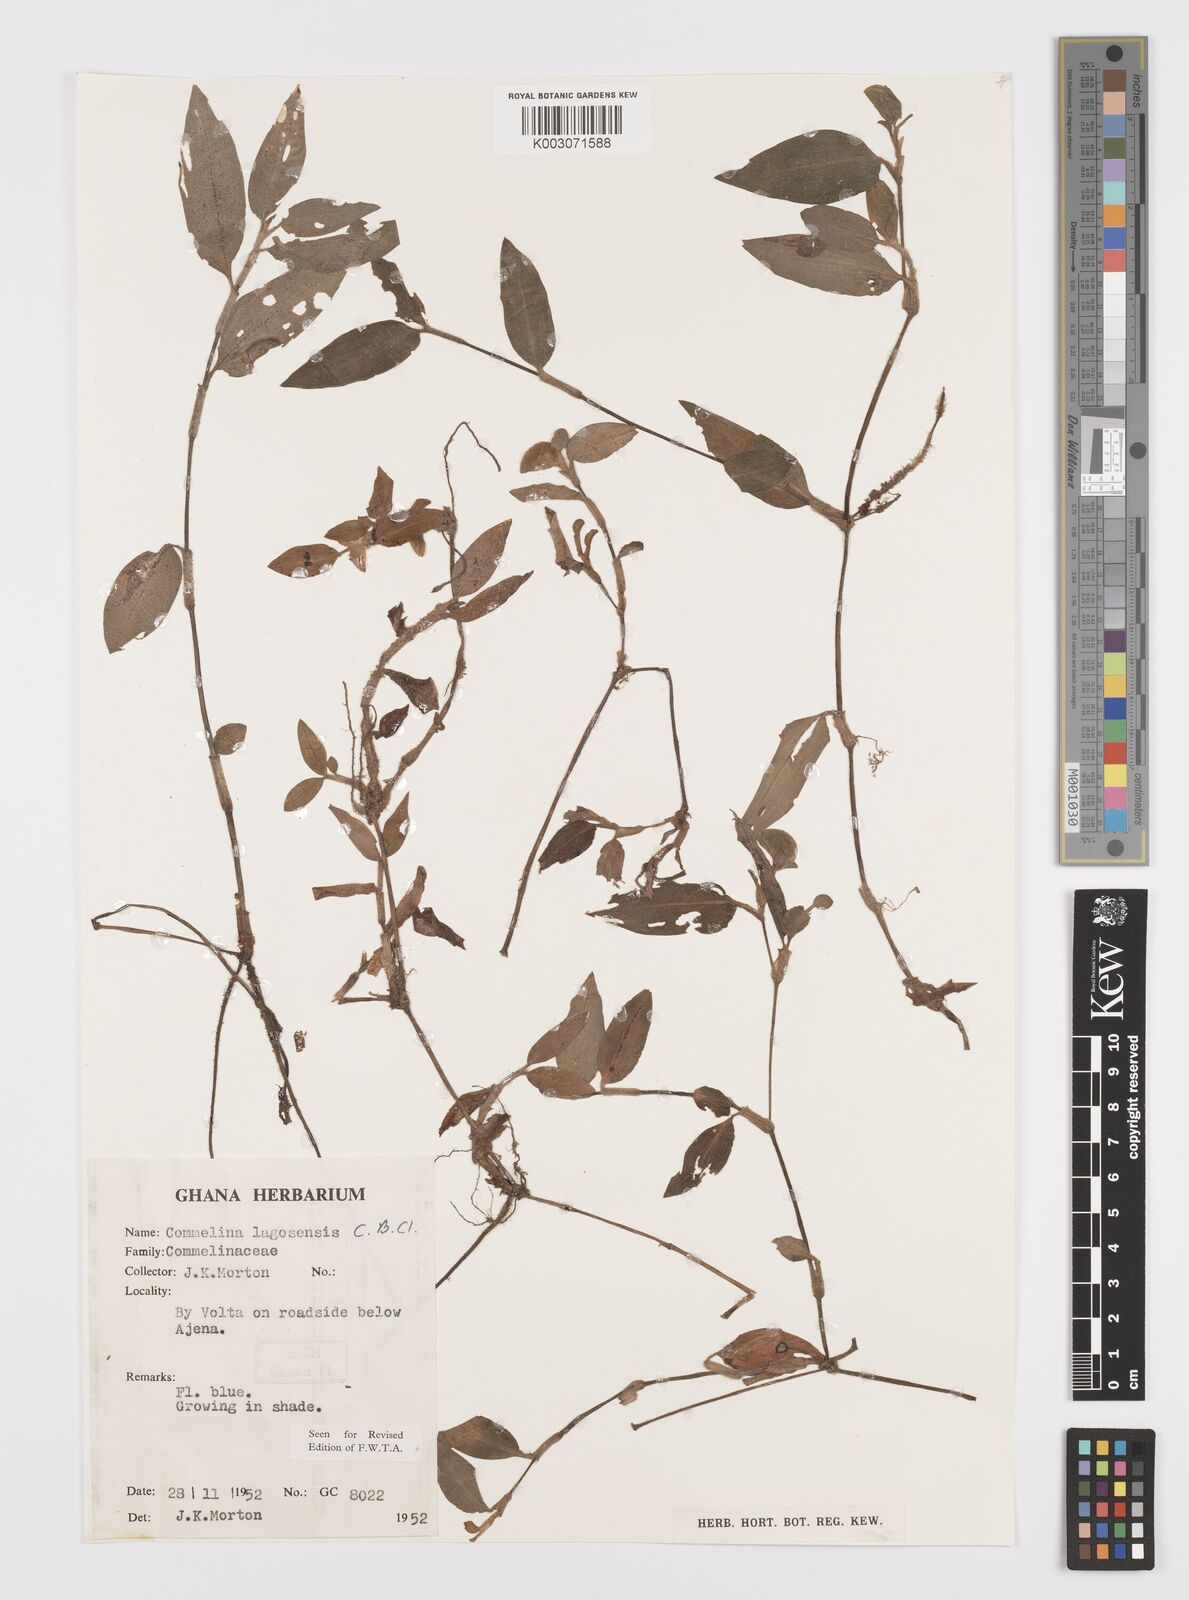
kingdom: Plantae
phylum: Tracheophyta
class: Liliopsida
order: Commelinales
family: Commelinaceae
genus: Commelina
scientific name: Commelina bracteosa
